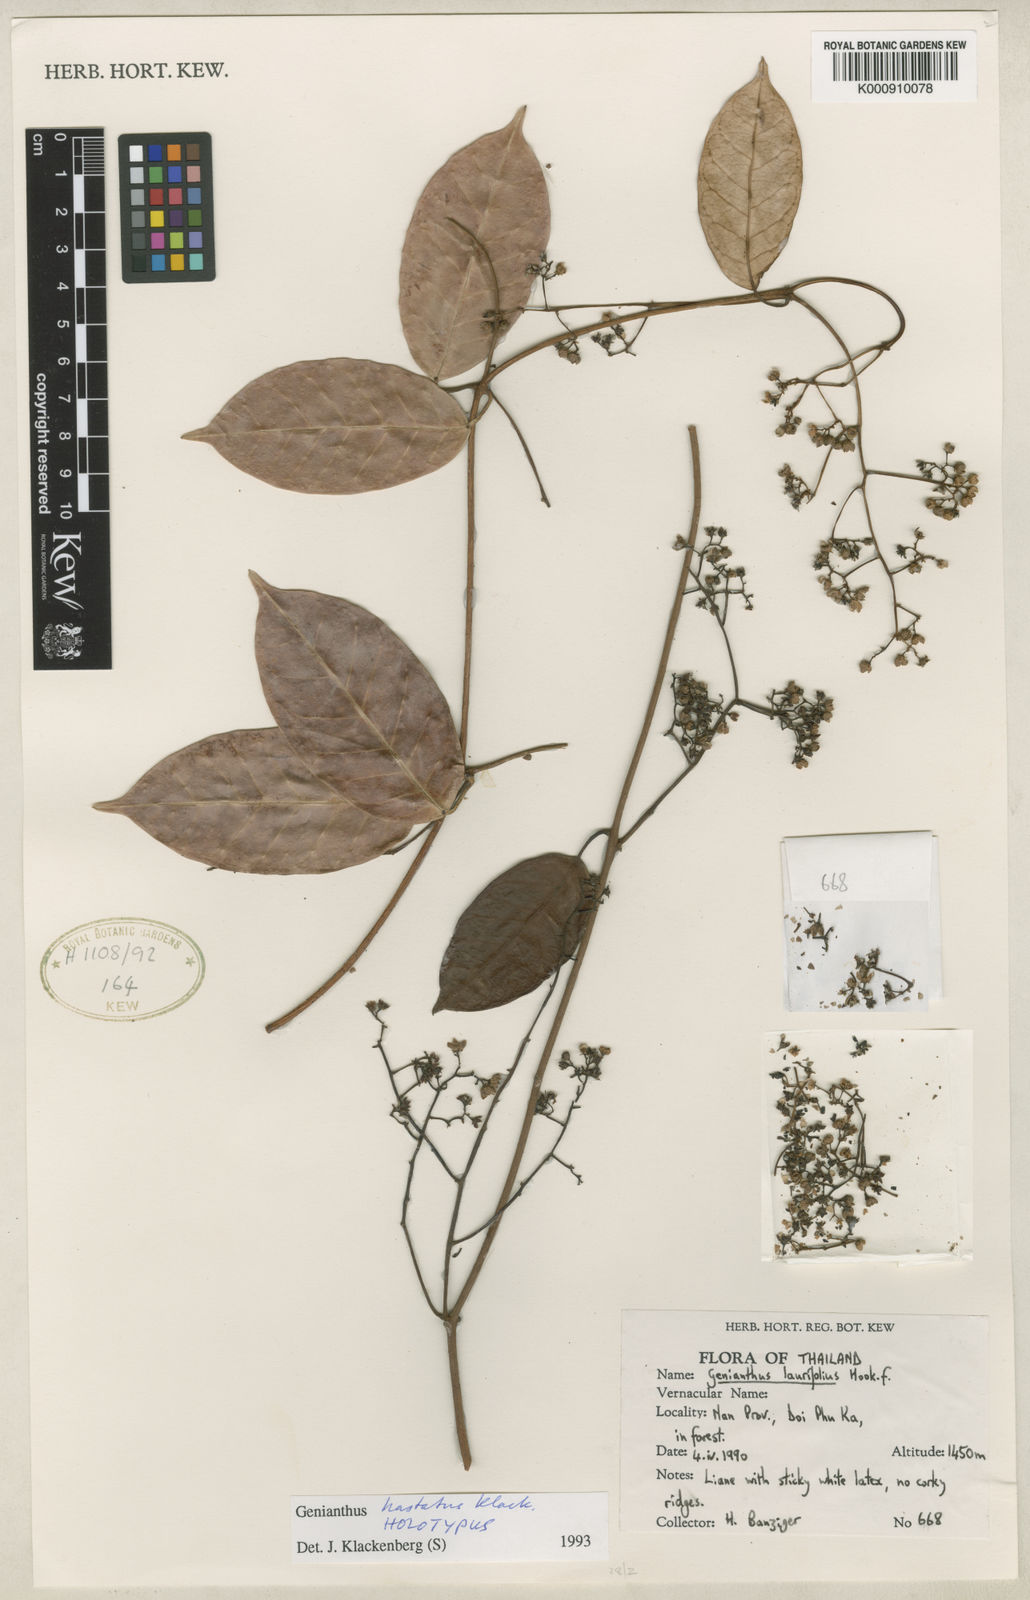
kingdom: Plantae
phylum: Tracheophyta
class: Magnoliopsida
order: Gentianales
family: Apocynaceae
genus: Secamone
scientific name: Secamone
